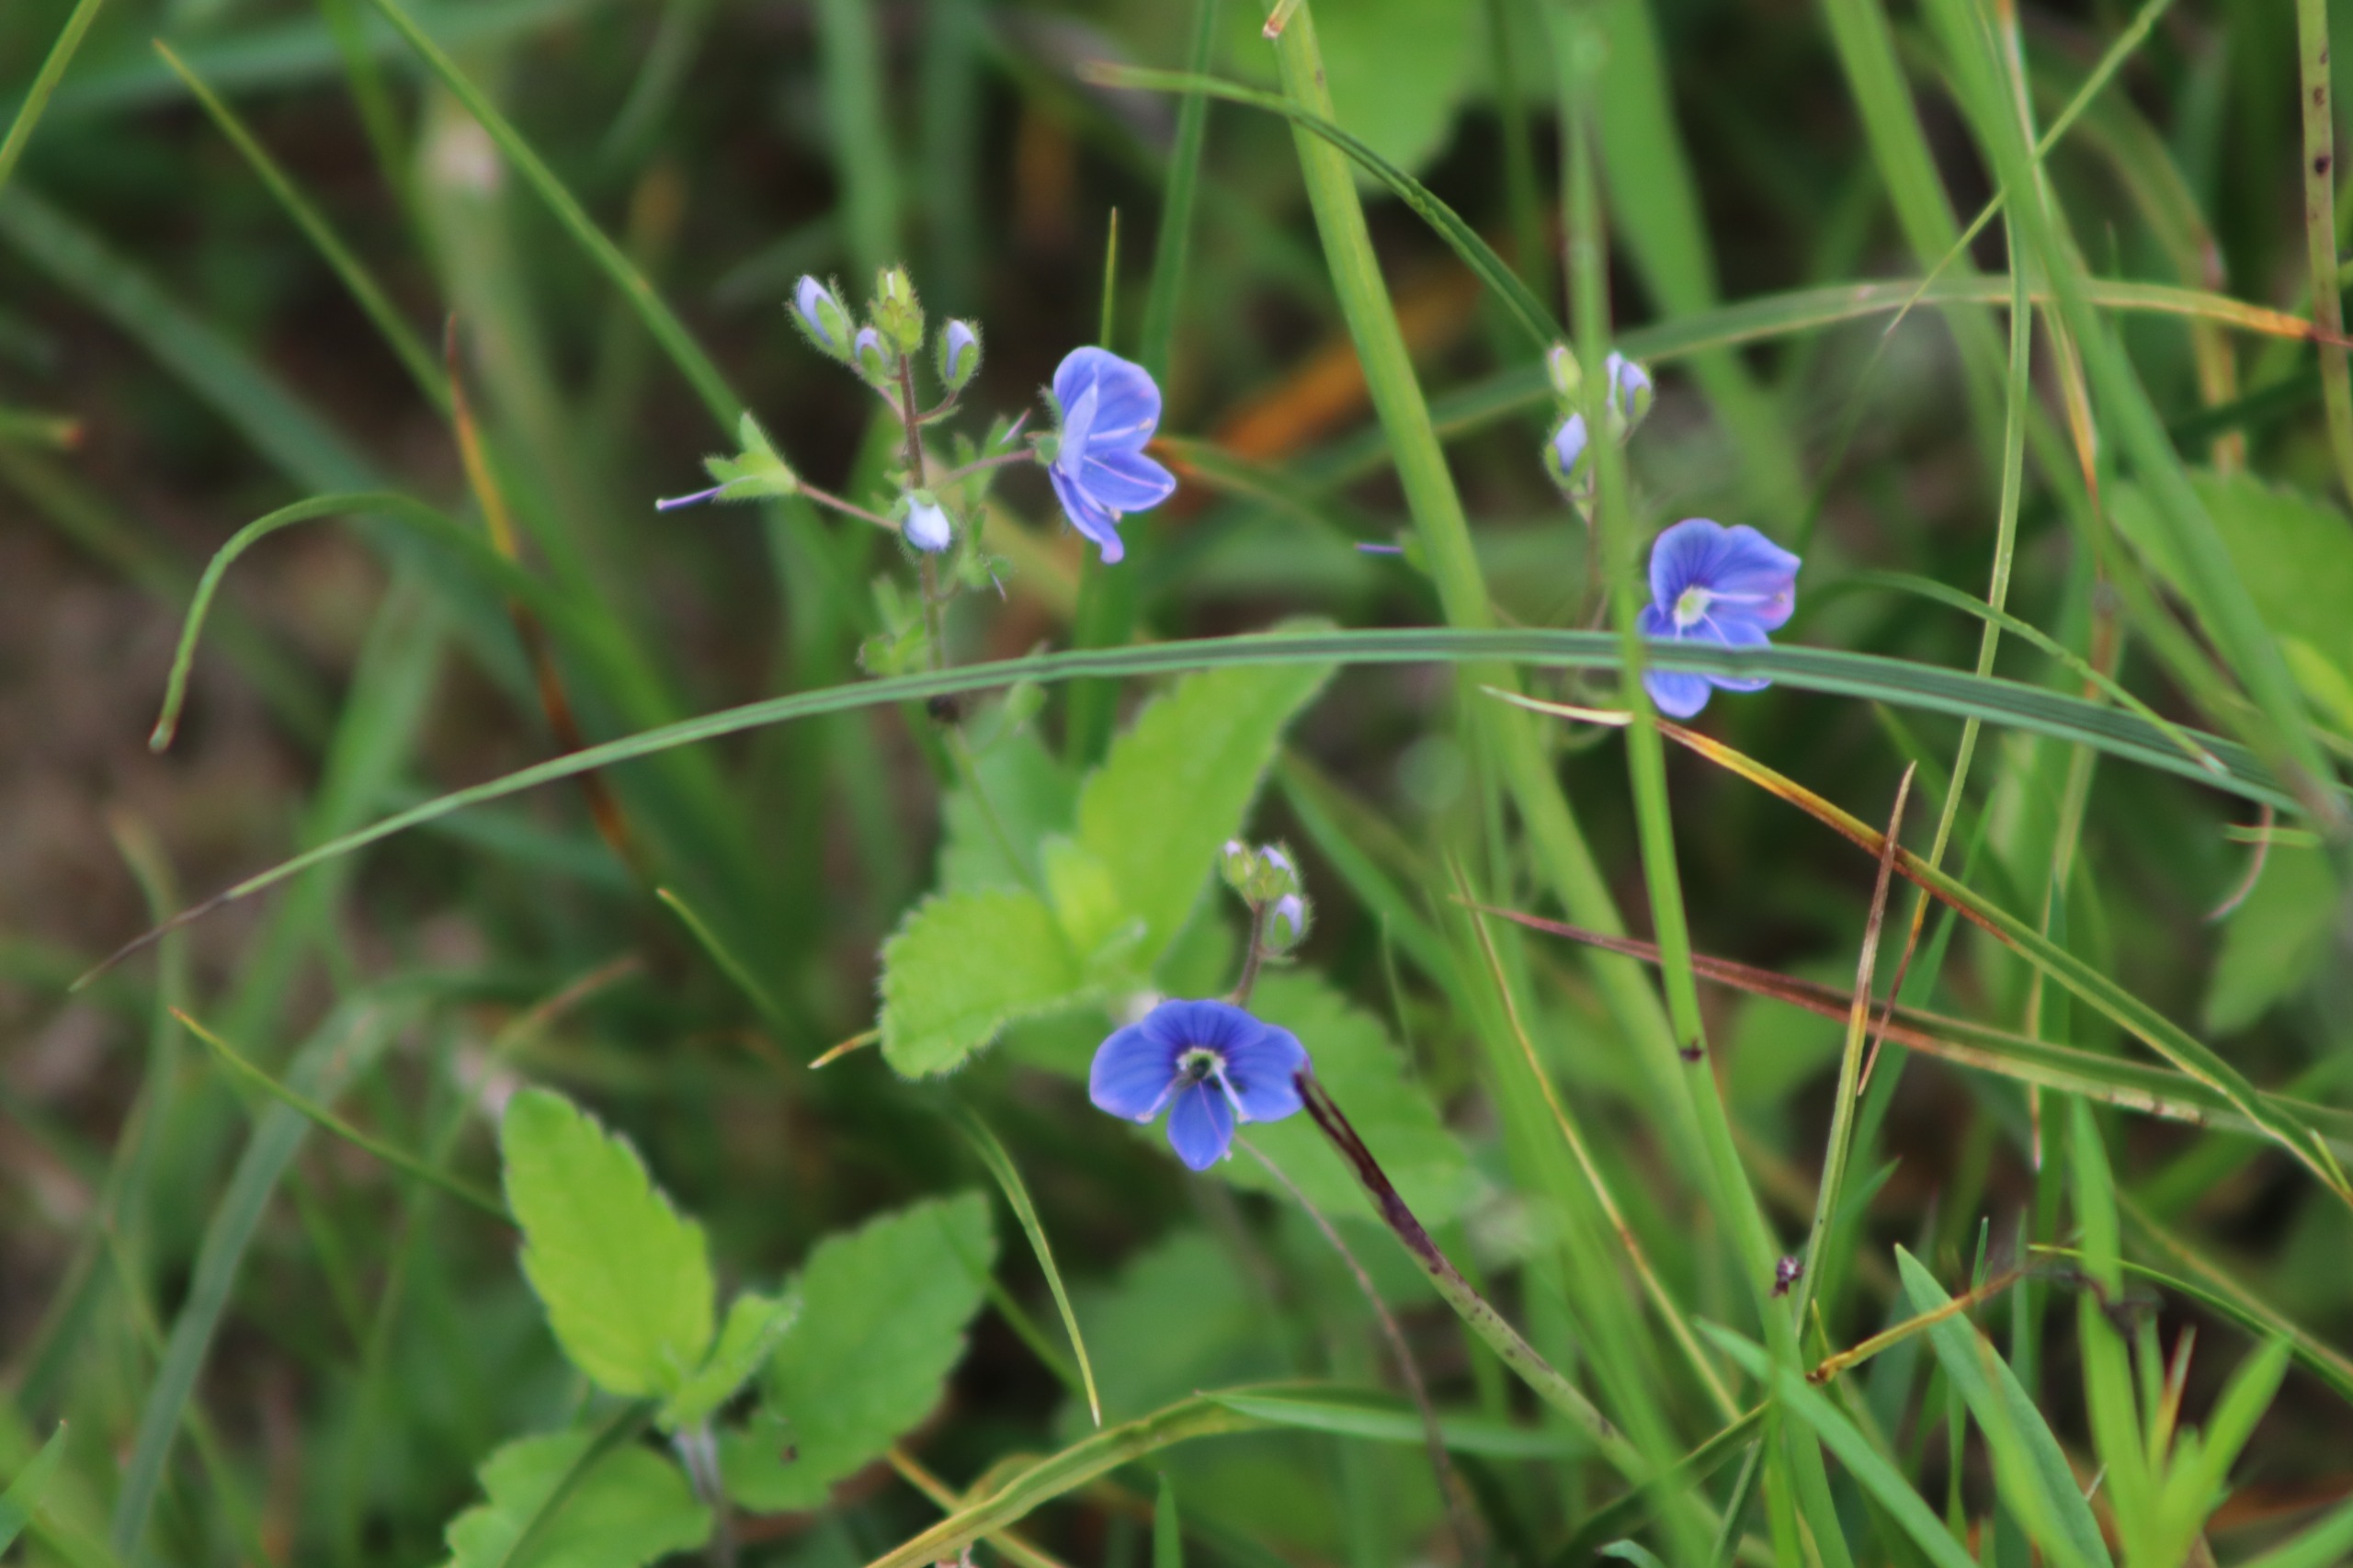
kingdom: Plantae
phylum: Tracheophyta
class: Magnoliopsida
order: Lamiales
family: Plantaginaceae
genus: Veronica
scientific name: Veronica chamaedrys
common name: Tveskægget ærenpris
